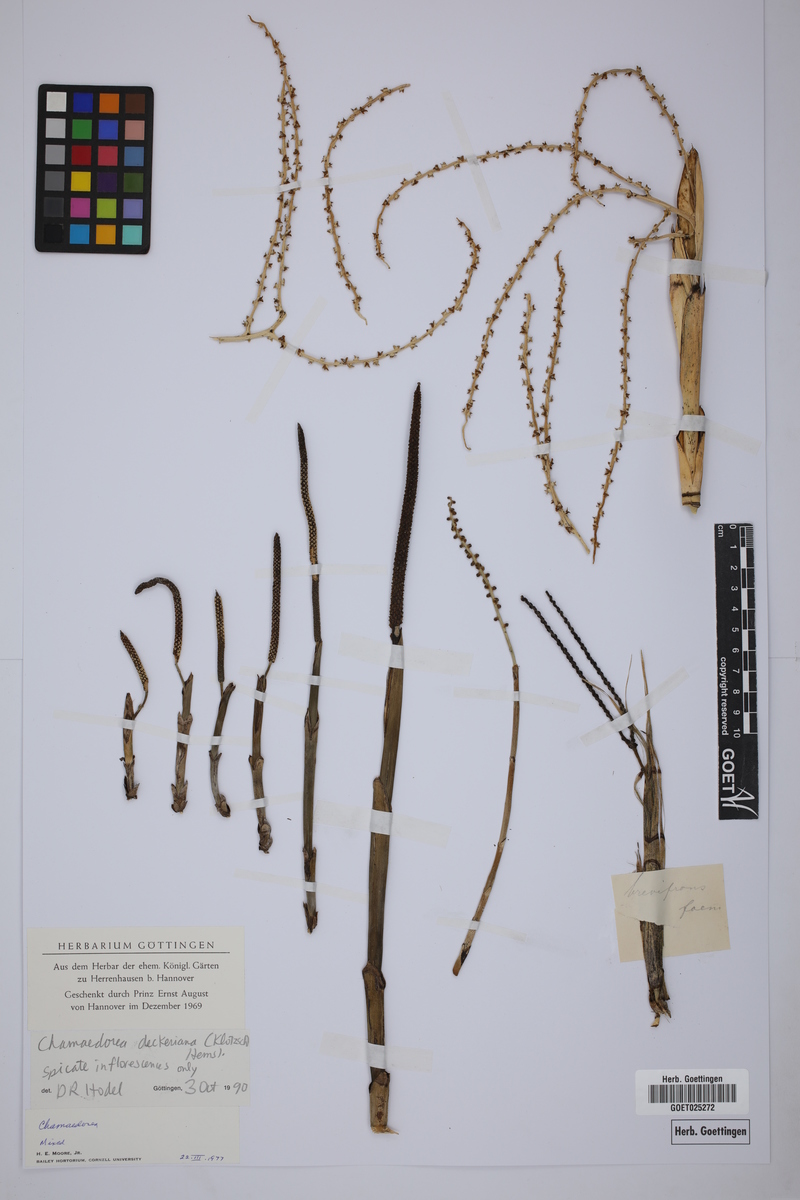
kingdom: Plantae
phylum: Tracheophyta
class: Liliopsida
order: Arecales
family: Arecaceae
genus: Chamaedorea
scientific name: Chamaedorea deckeriana
